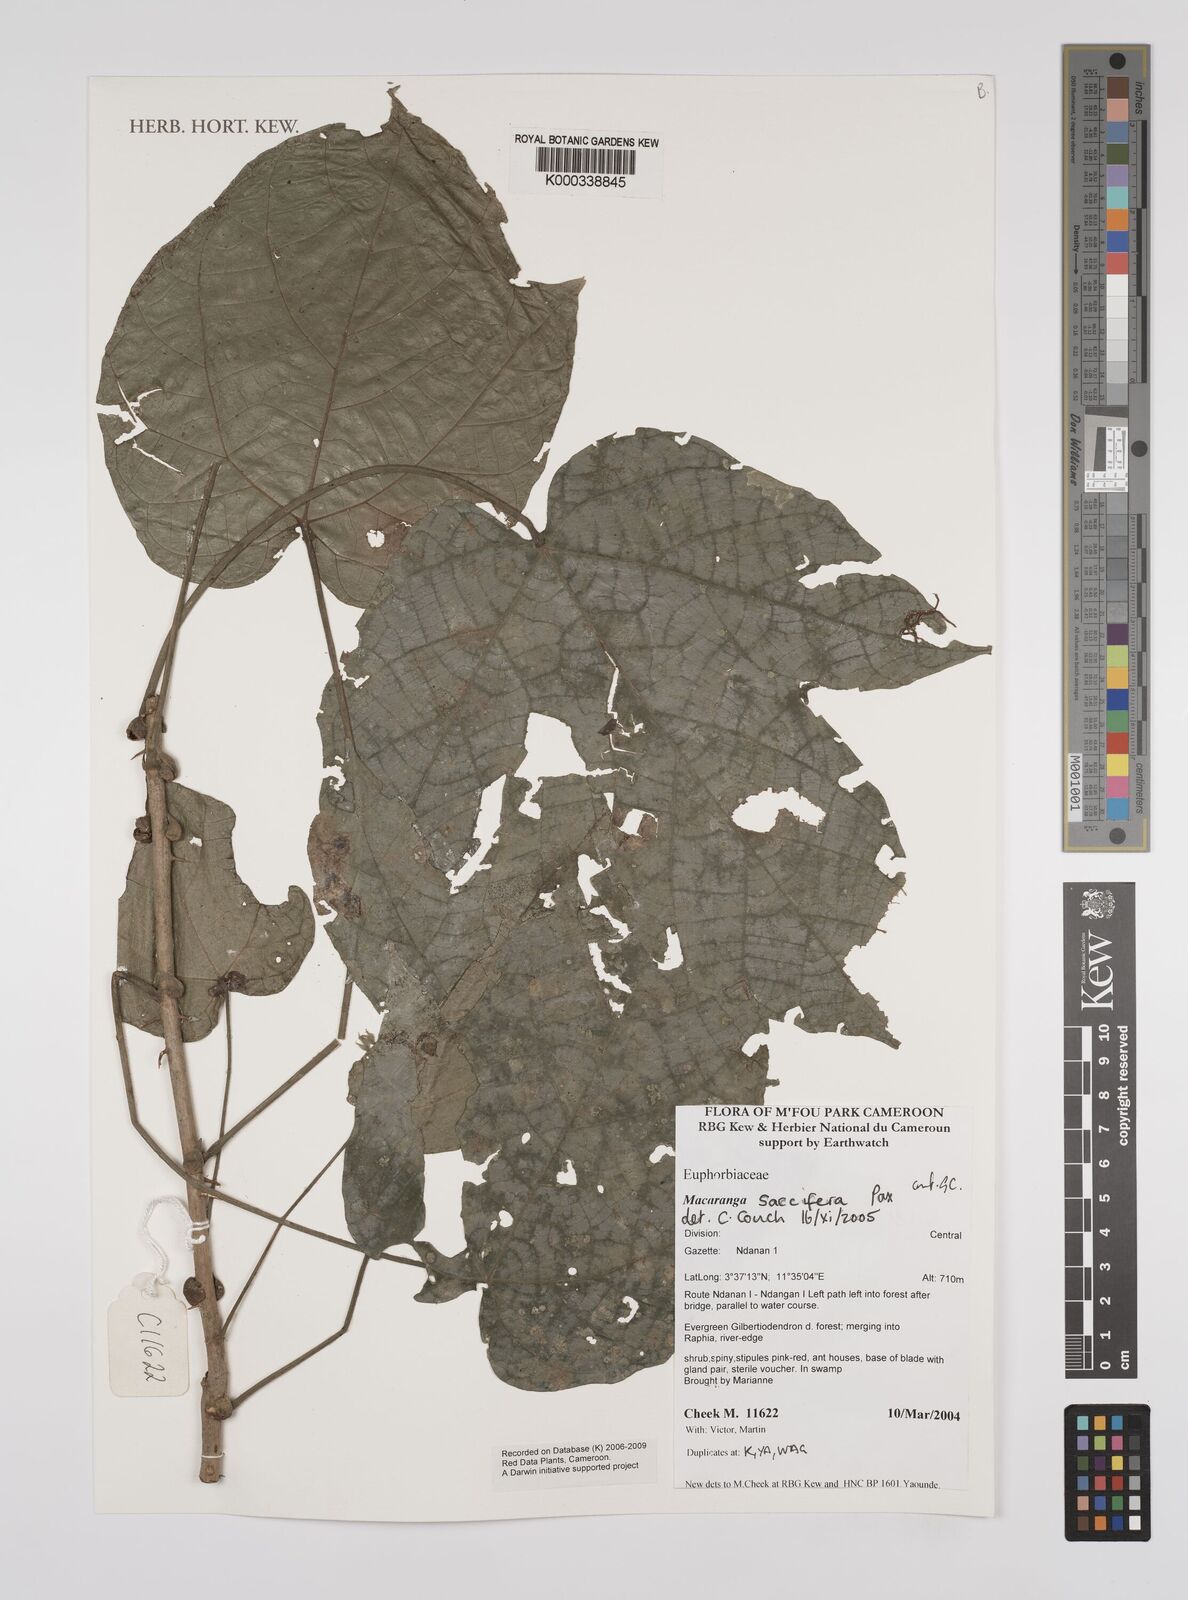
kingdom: Plantae
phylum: Tracheophyta
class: Magnoliopsida
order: Malpighiales
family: Euphorbiaceae
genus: Macaranga
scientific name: Macaranga saccifera
